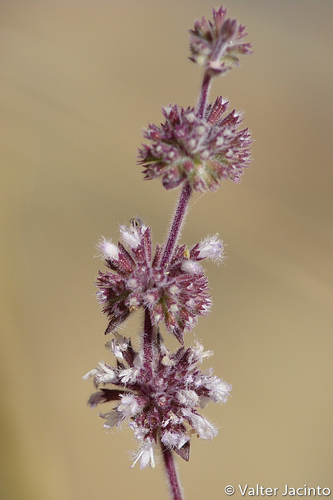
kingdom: Plantae
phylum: Tracheophyta
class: Magnoliopsida
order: Lamiales
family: Lamiaceae
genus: Mentha
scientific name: Mentha pulegium
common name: Pennyroyal
